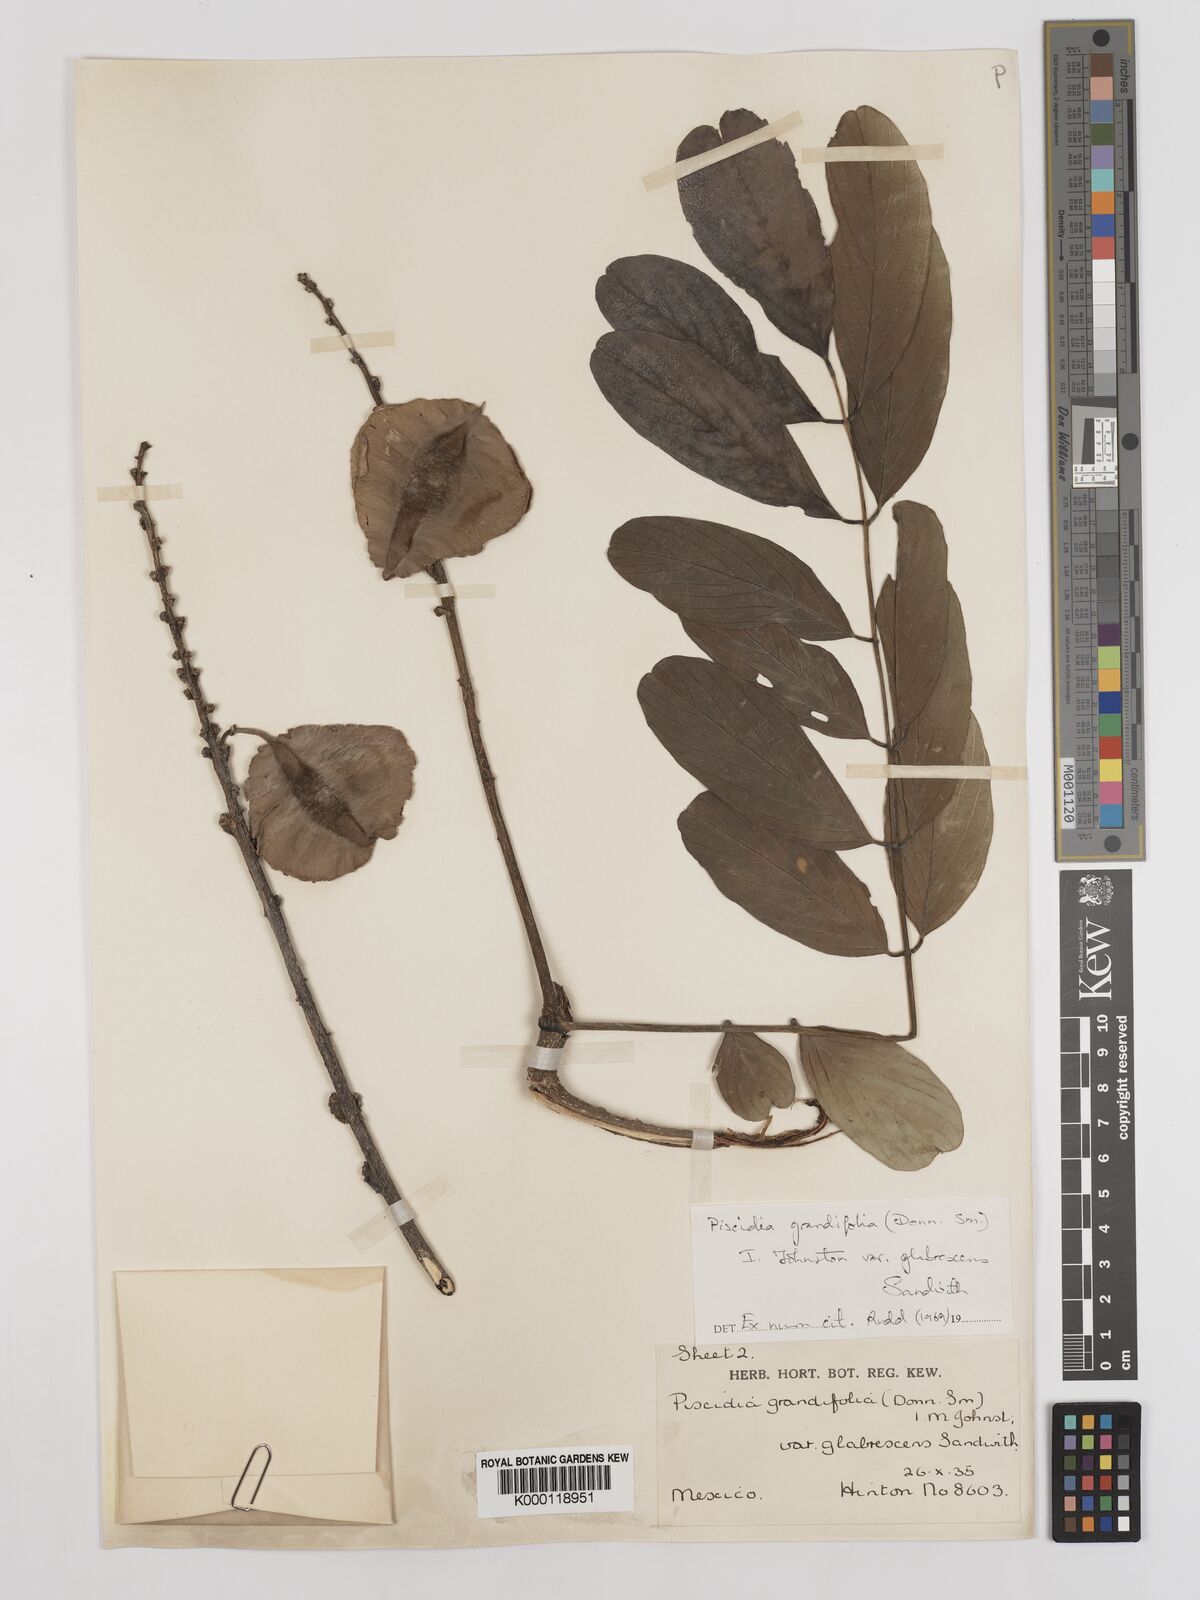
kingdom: Plantae
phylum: Tracheophyta
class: Magnoliopsida
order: Fabales
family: Fabaceae
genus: Piscidia
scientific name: Piscidia grandifolia
